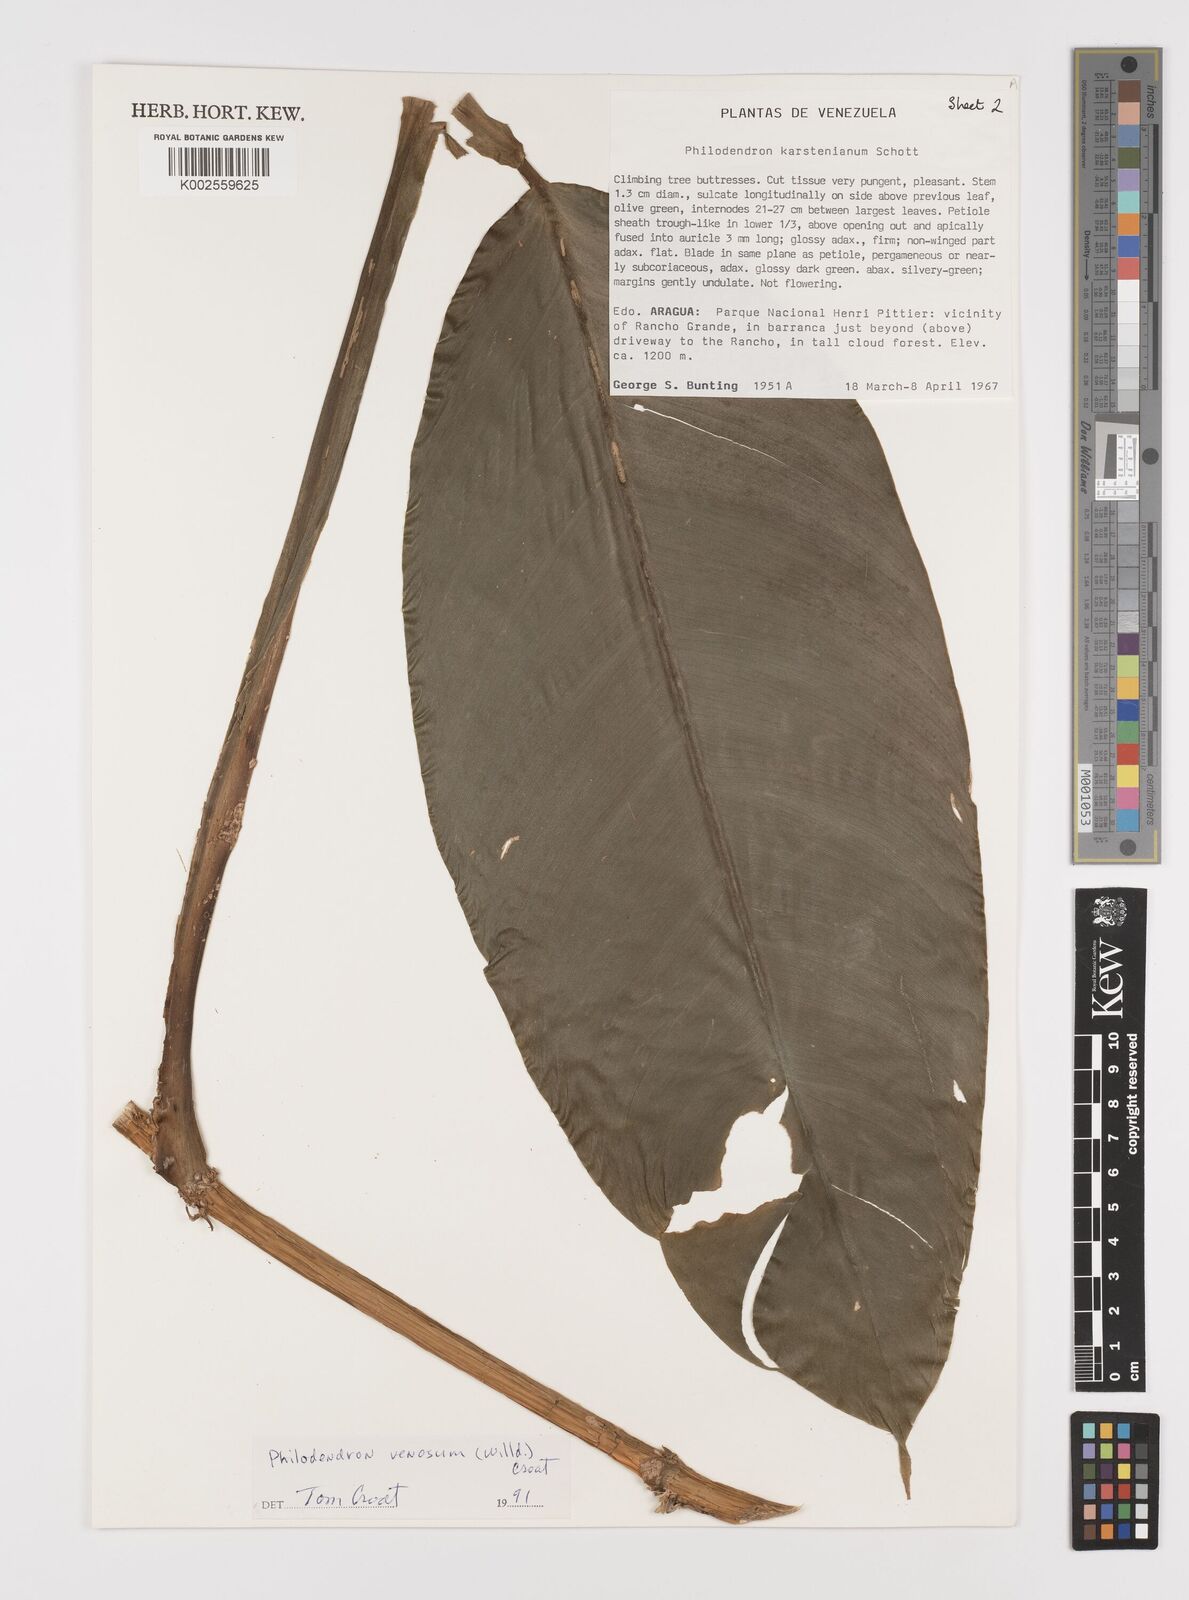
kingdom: Plantae
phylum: Tracheophyta
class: Liliopsida
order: Alismatales
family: Araceae
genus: Philodendron
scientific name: Philodendron venosum
